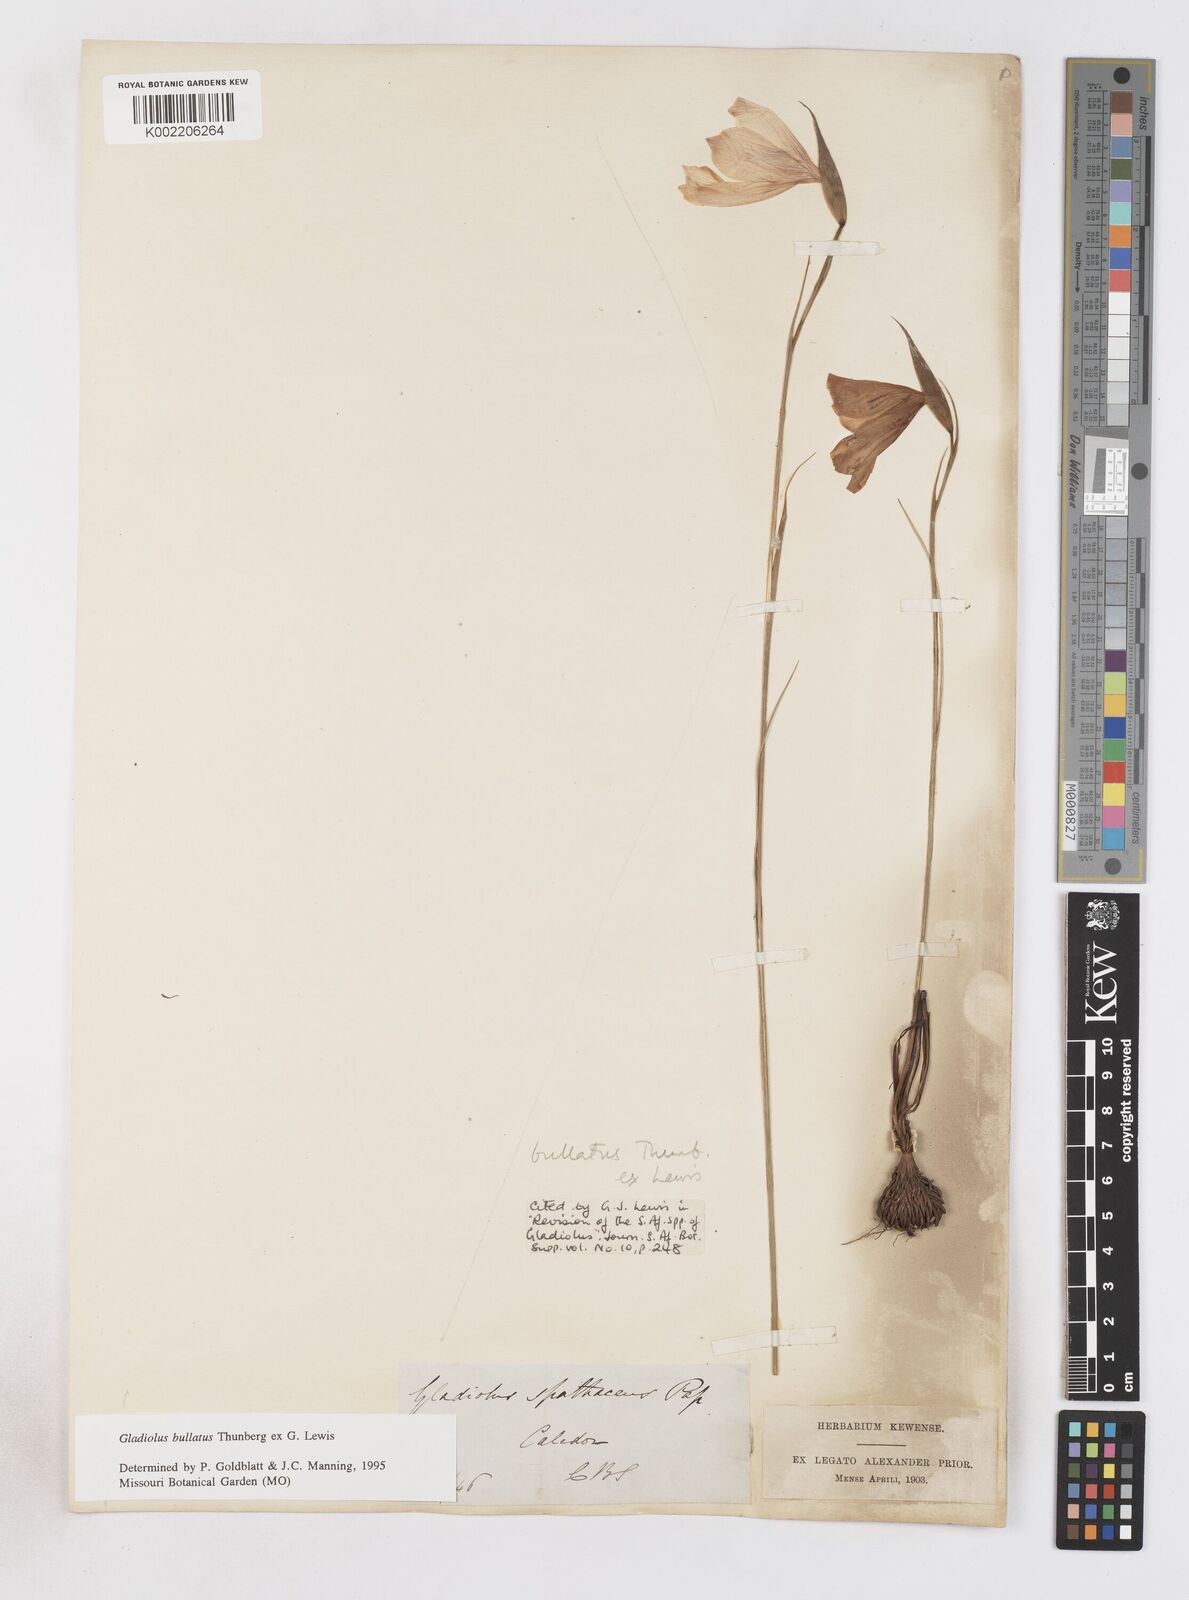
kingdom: Plantae
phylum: Tracheophyta
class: Liliopsida
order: Asparagales
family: Iridaceae
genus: Gladiolus
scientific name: Gladiolus bullatus
